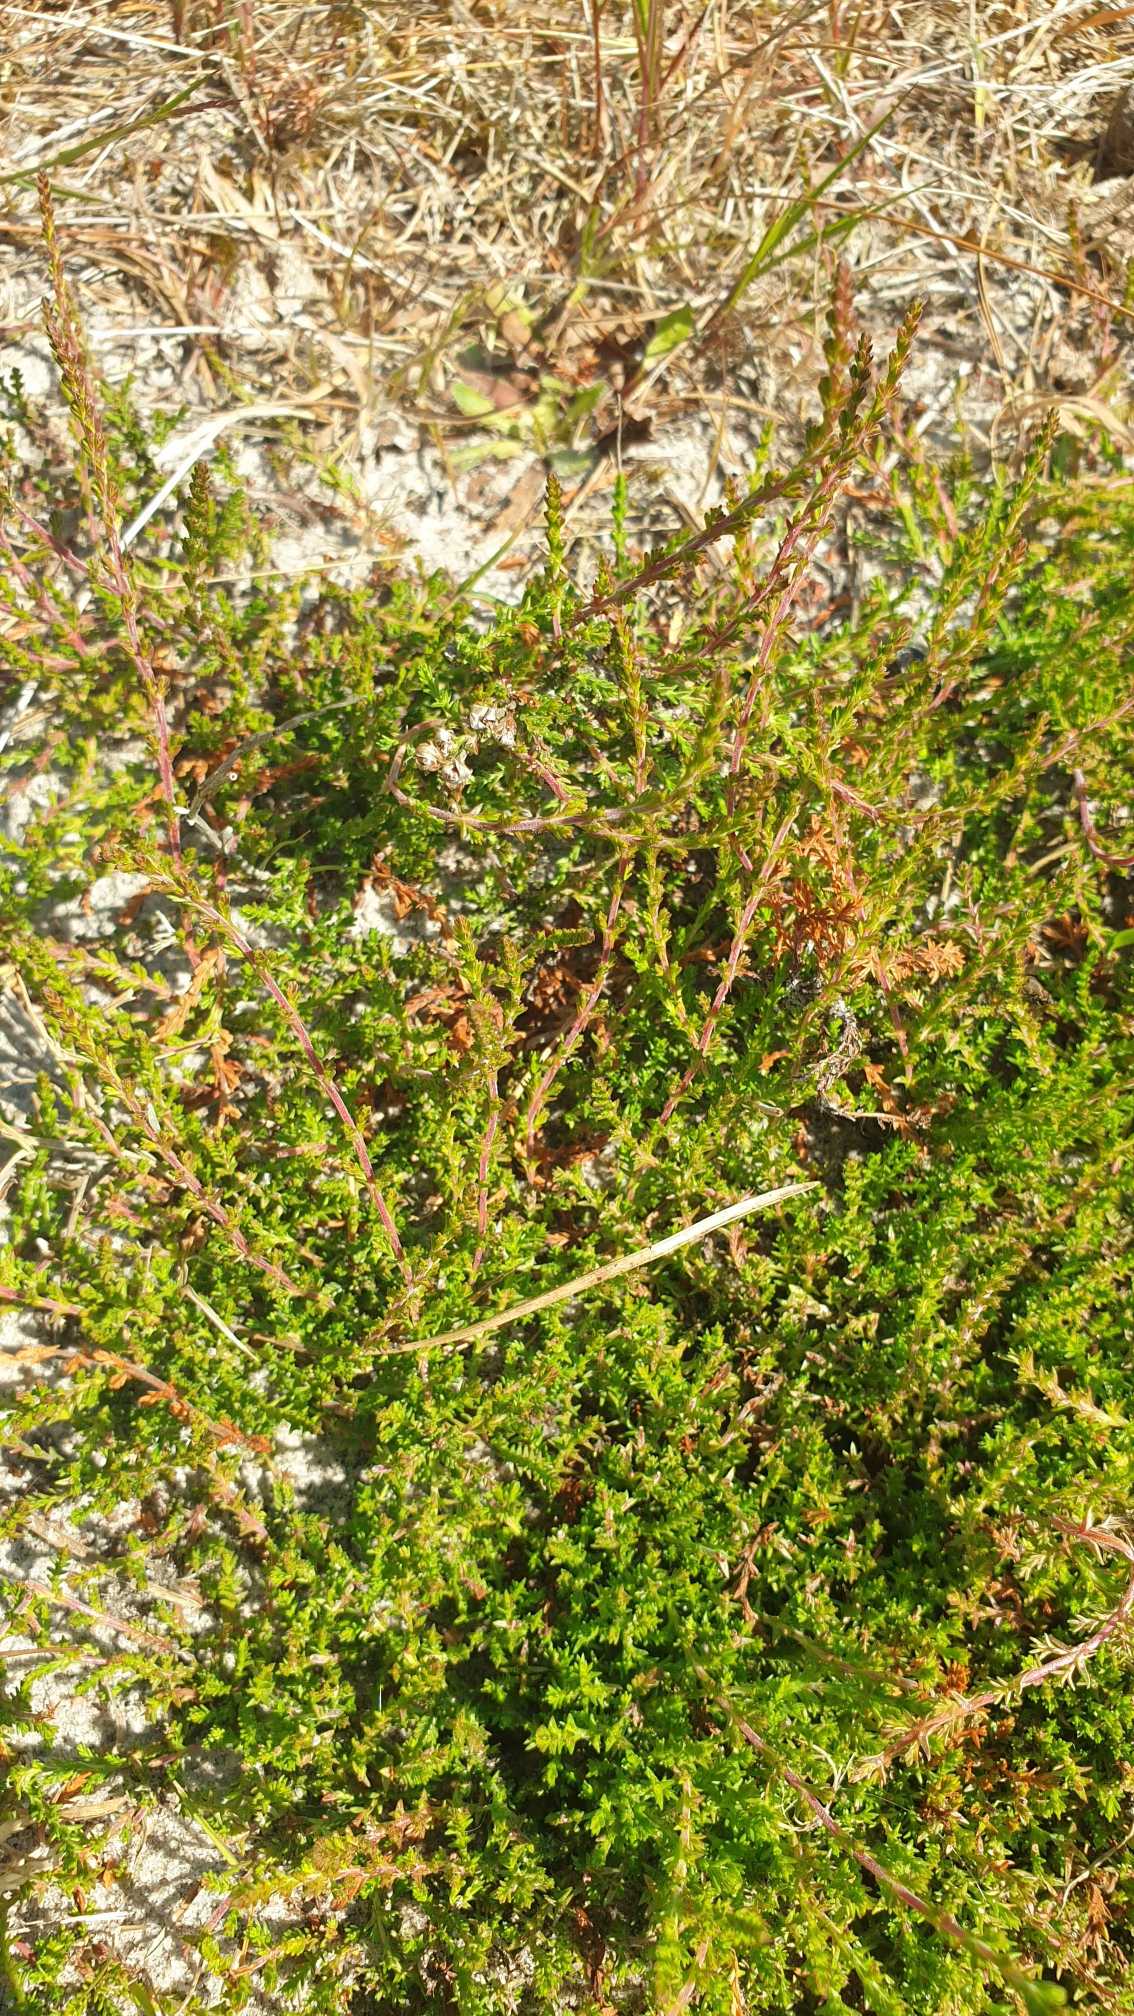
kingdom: Plantae
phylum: Tracheophyta
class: Magnoliopsida
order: Ericales
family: Ericaceae
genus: Calluna
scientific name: Calluna vulgaris
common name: Hedelyng
